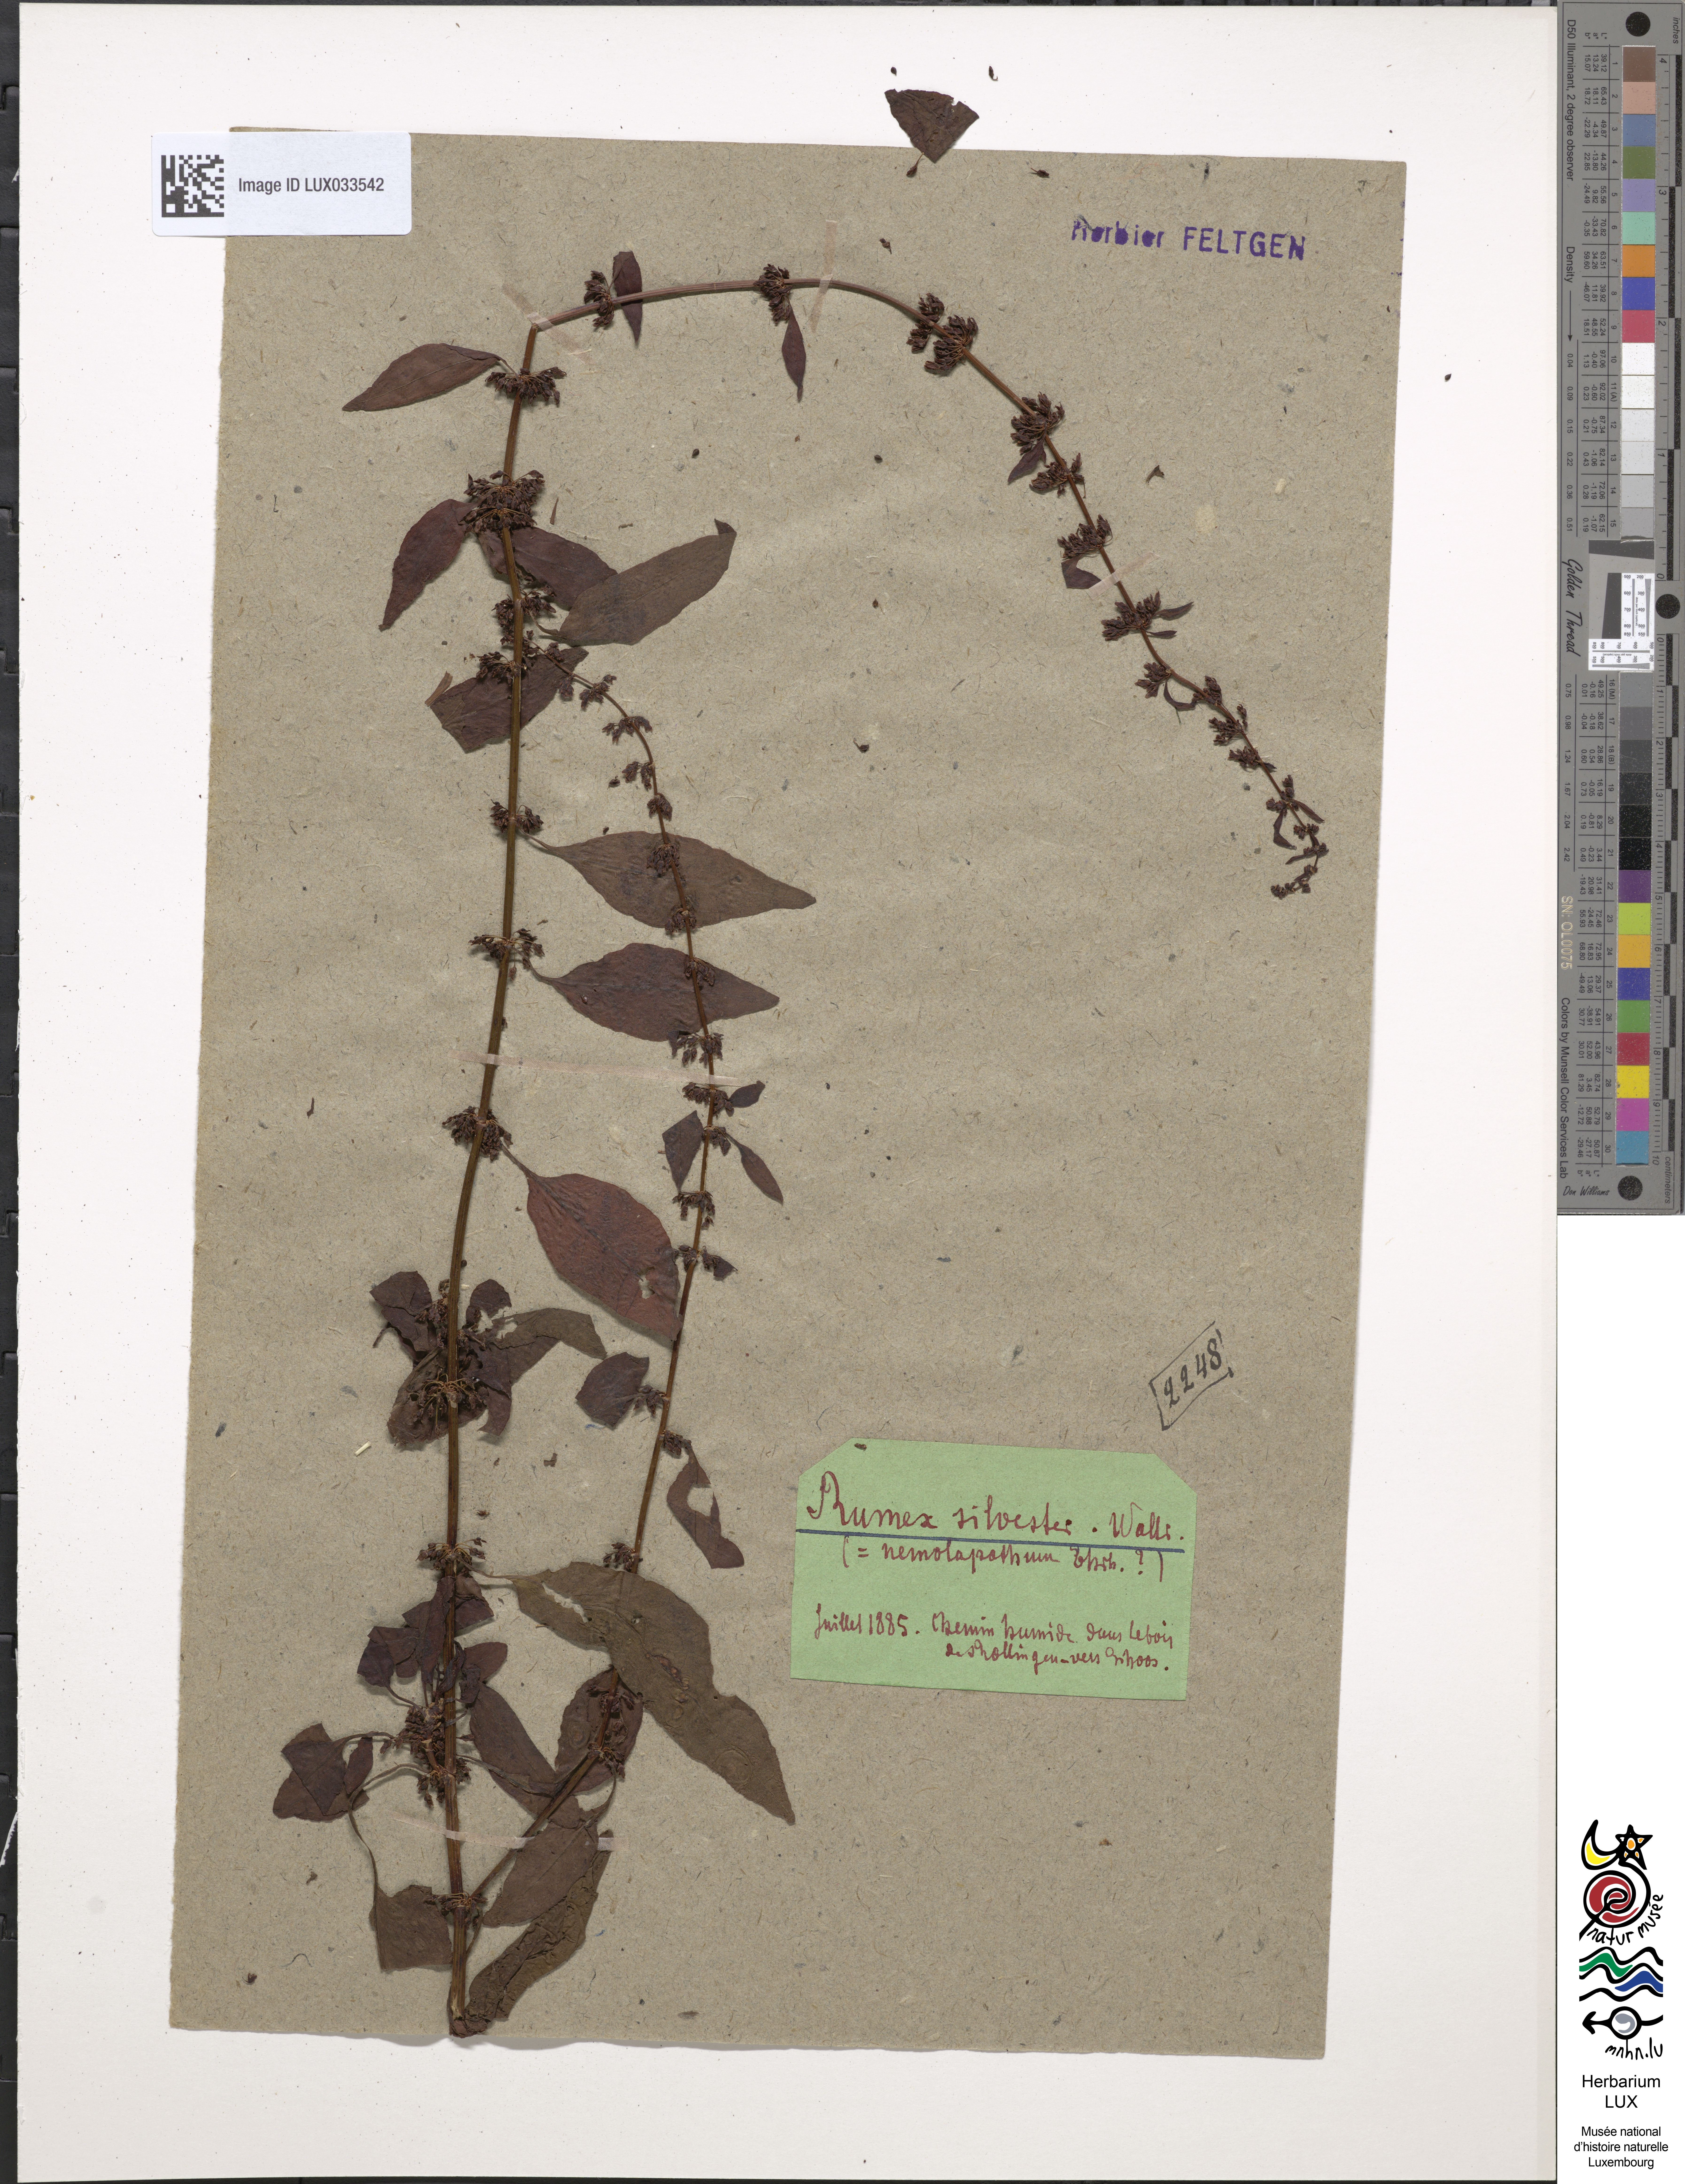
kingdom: Plantae
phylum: Tracheophyta
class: Magnoliopsida
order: Caryophyllales
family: Polygonaceae
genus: Rumex
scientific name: Rumex obtusifolius
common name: Bitter dock
